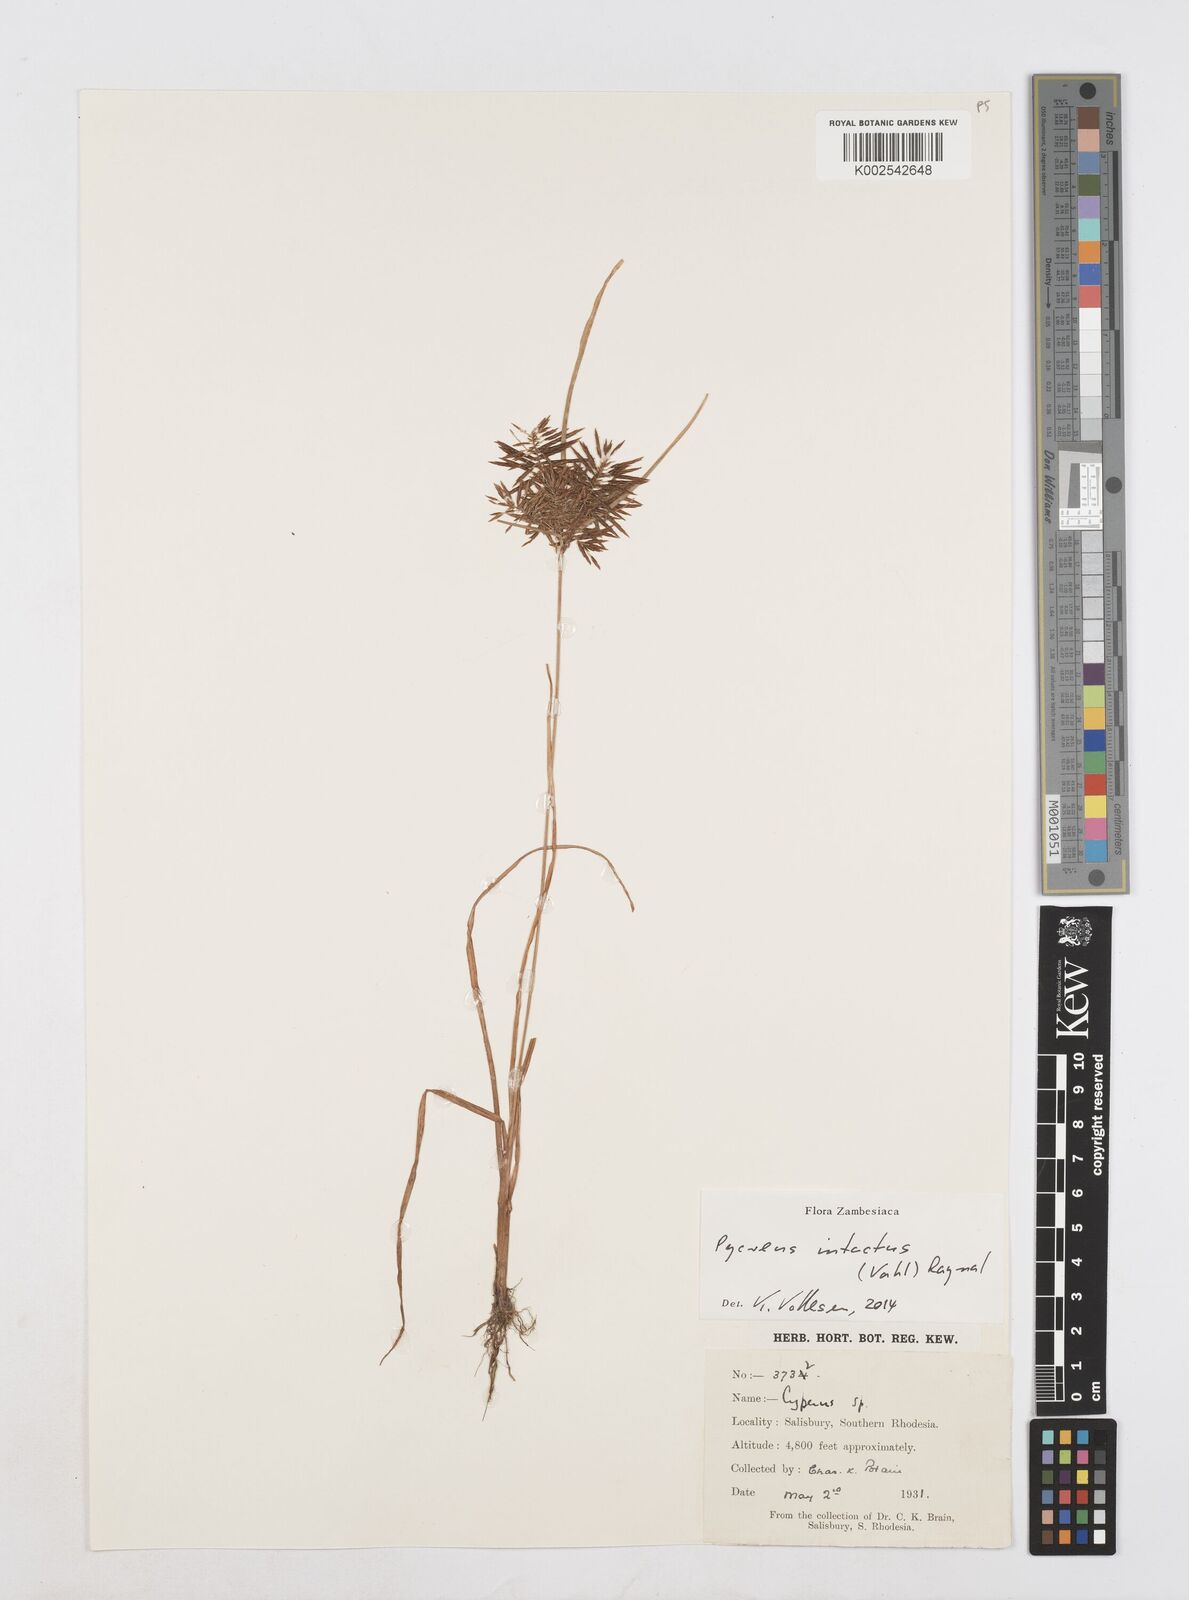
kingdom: Plantae
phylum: Tracheophyta
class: Liliopsida
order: Poales
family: Cyperaceae
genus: Cyperus
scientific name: Cyperus intactus
